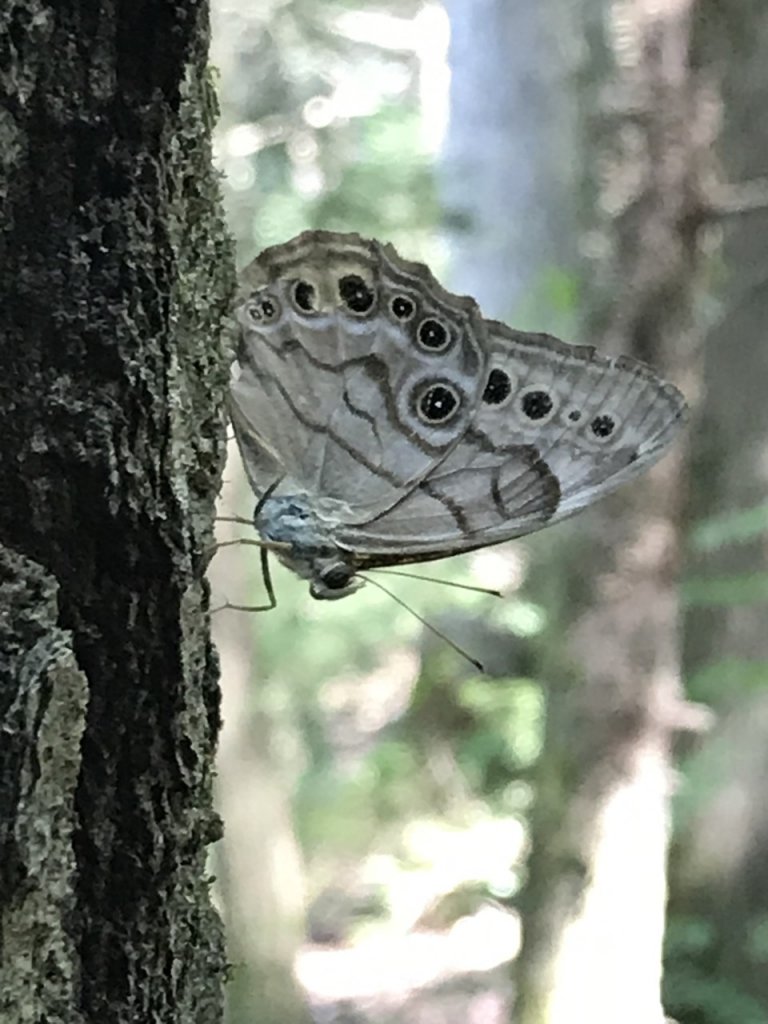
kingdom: Animalia
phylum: Arthropoda
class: Insecta
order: Lepidoptera
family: Nymphalidae
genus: Lethe
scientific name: Lethe anthedon
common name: Northern Pearly-Eye
